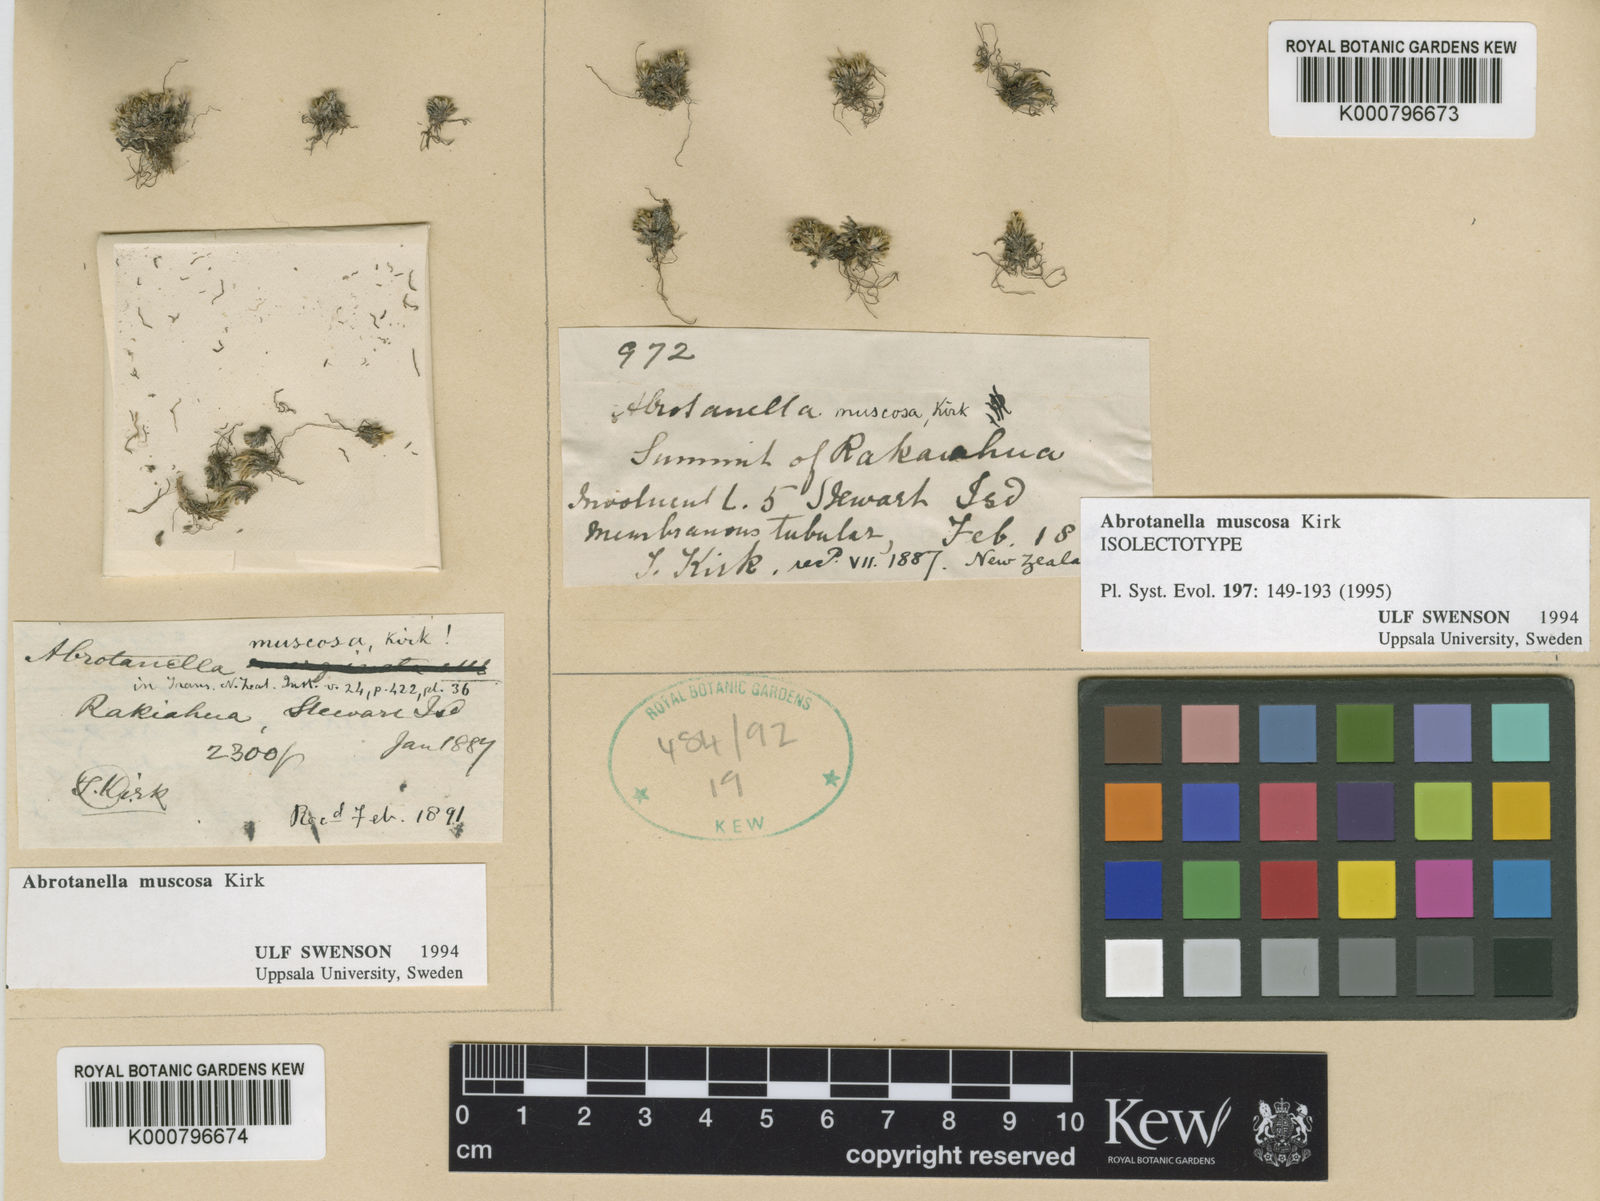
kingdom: Plantae
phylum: Tracheophyta
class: Magnoliopsida
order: Asterales
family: Asteraceae
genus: Abrotanella
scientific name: Abrotanella muscosa
